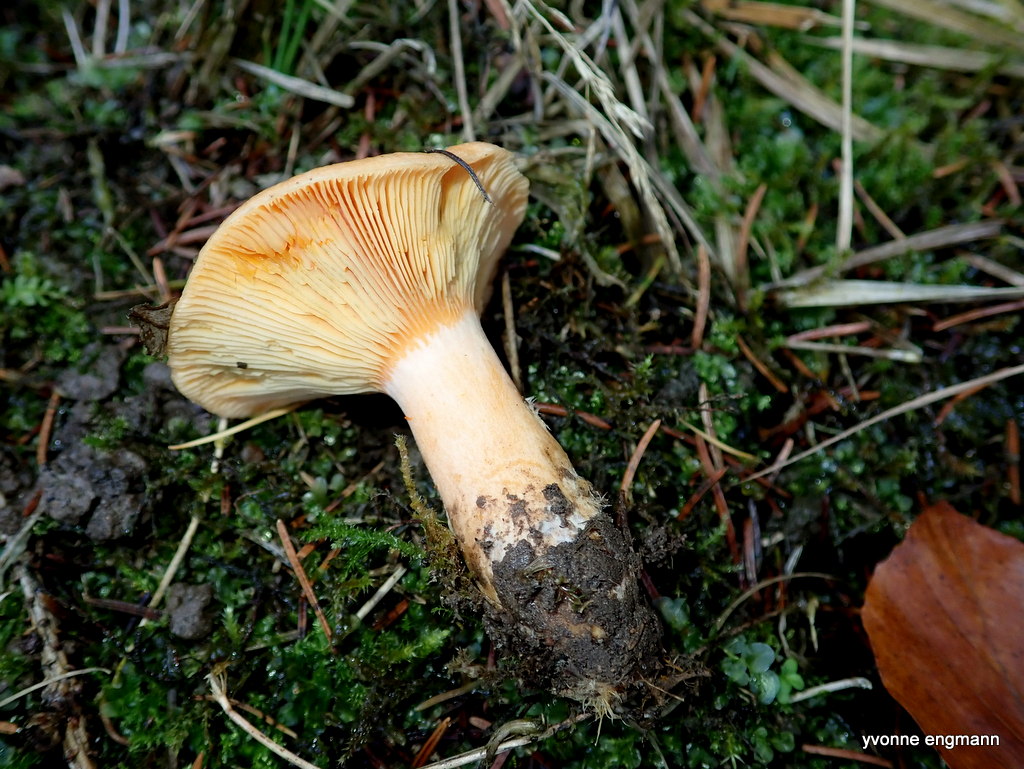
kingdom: Fungi
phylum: Basidiomycota
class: Agaricomycetes
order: Russulales
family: Russulaceae
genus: Lactarius
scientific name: Lactarius deterrimus
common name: gran-mælkehat
